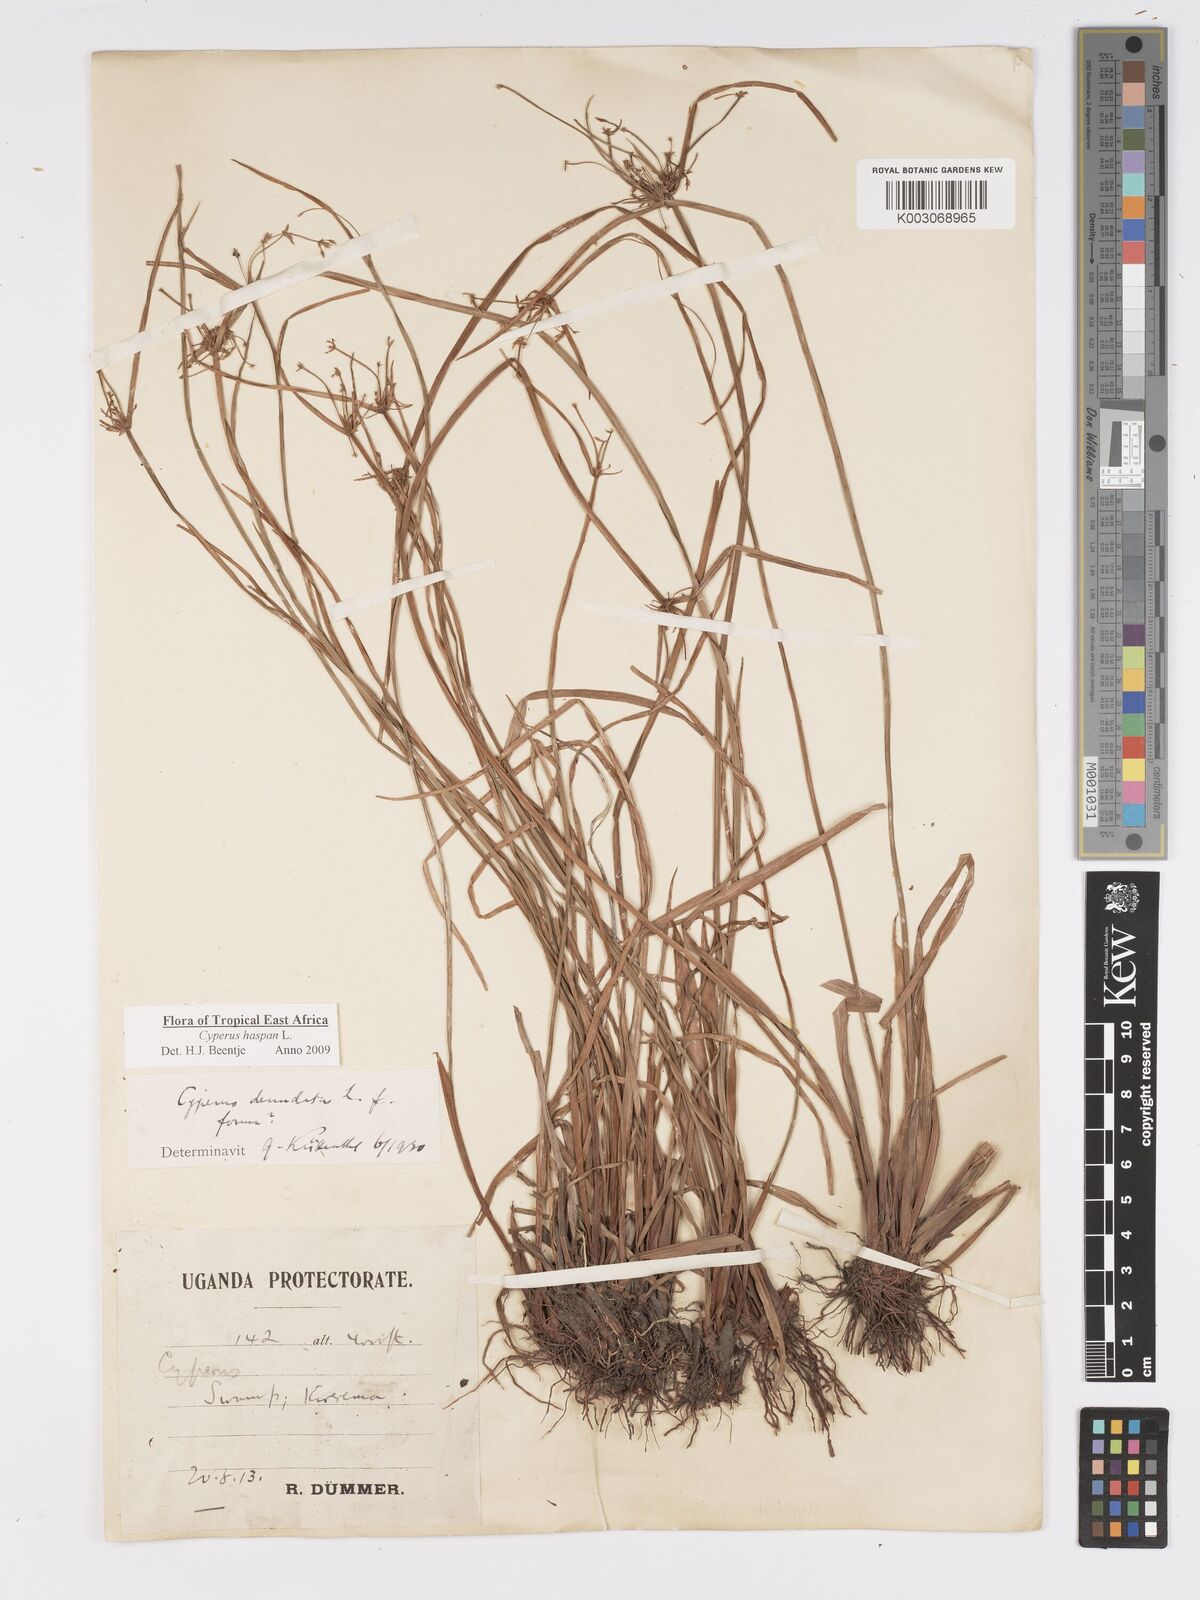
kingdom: Plantae
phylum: Tracheophyta
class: Liliopsida
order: Poales
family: Cyperaceae
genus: Cyperus
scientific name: Cyperus haspan
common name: Haspan flatsedge
